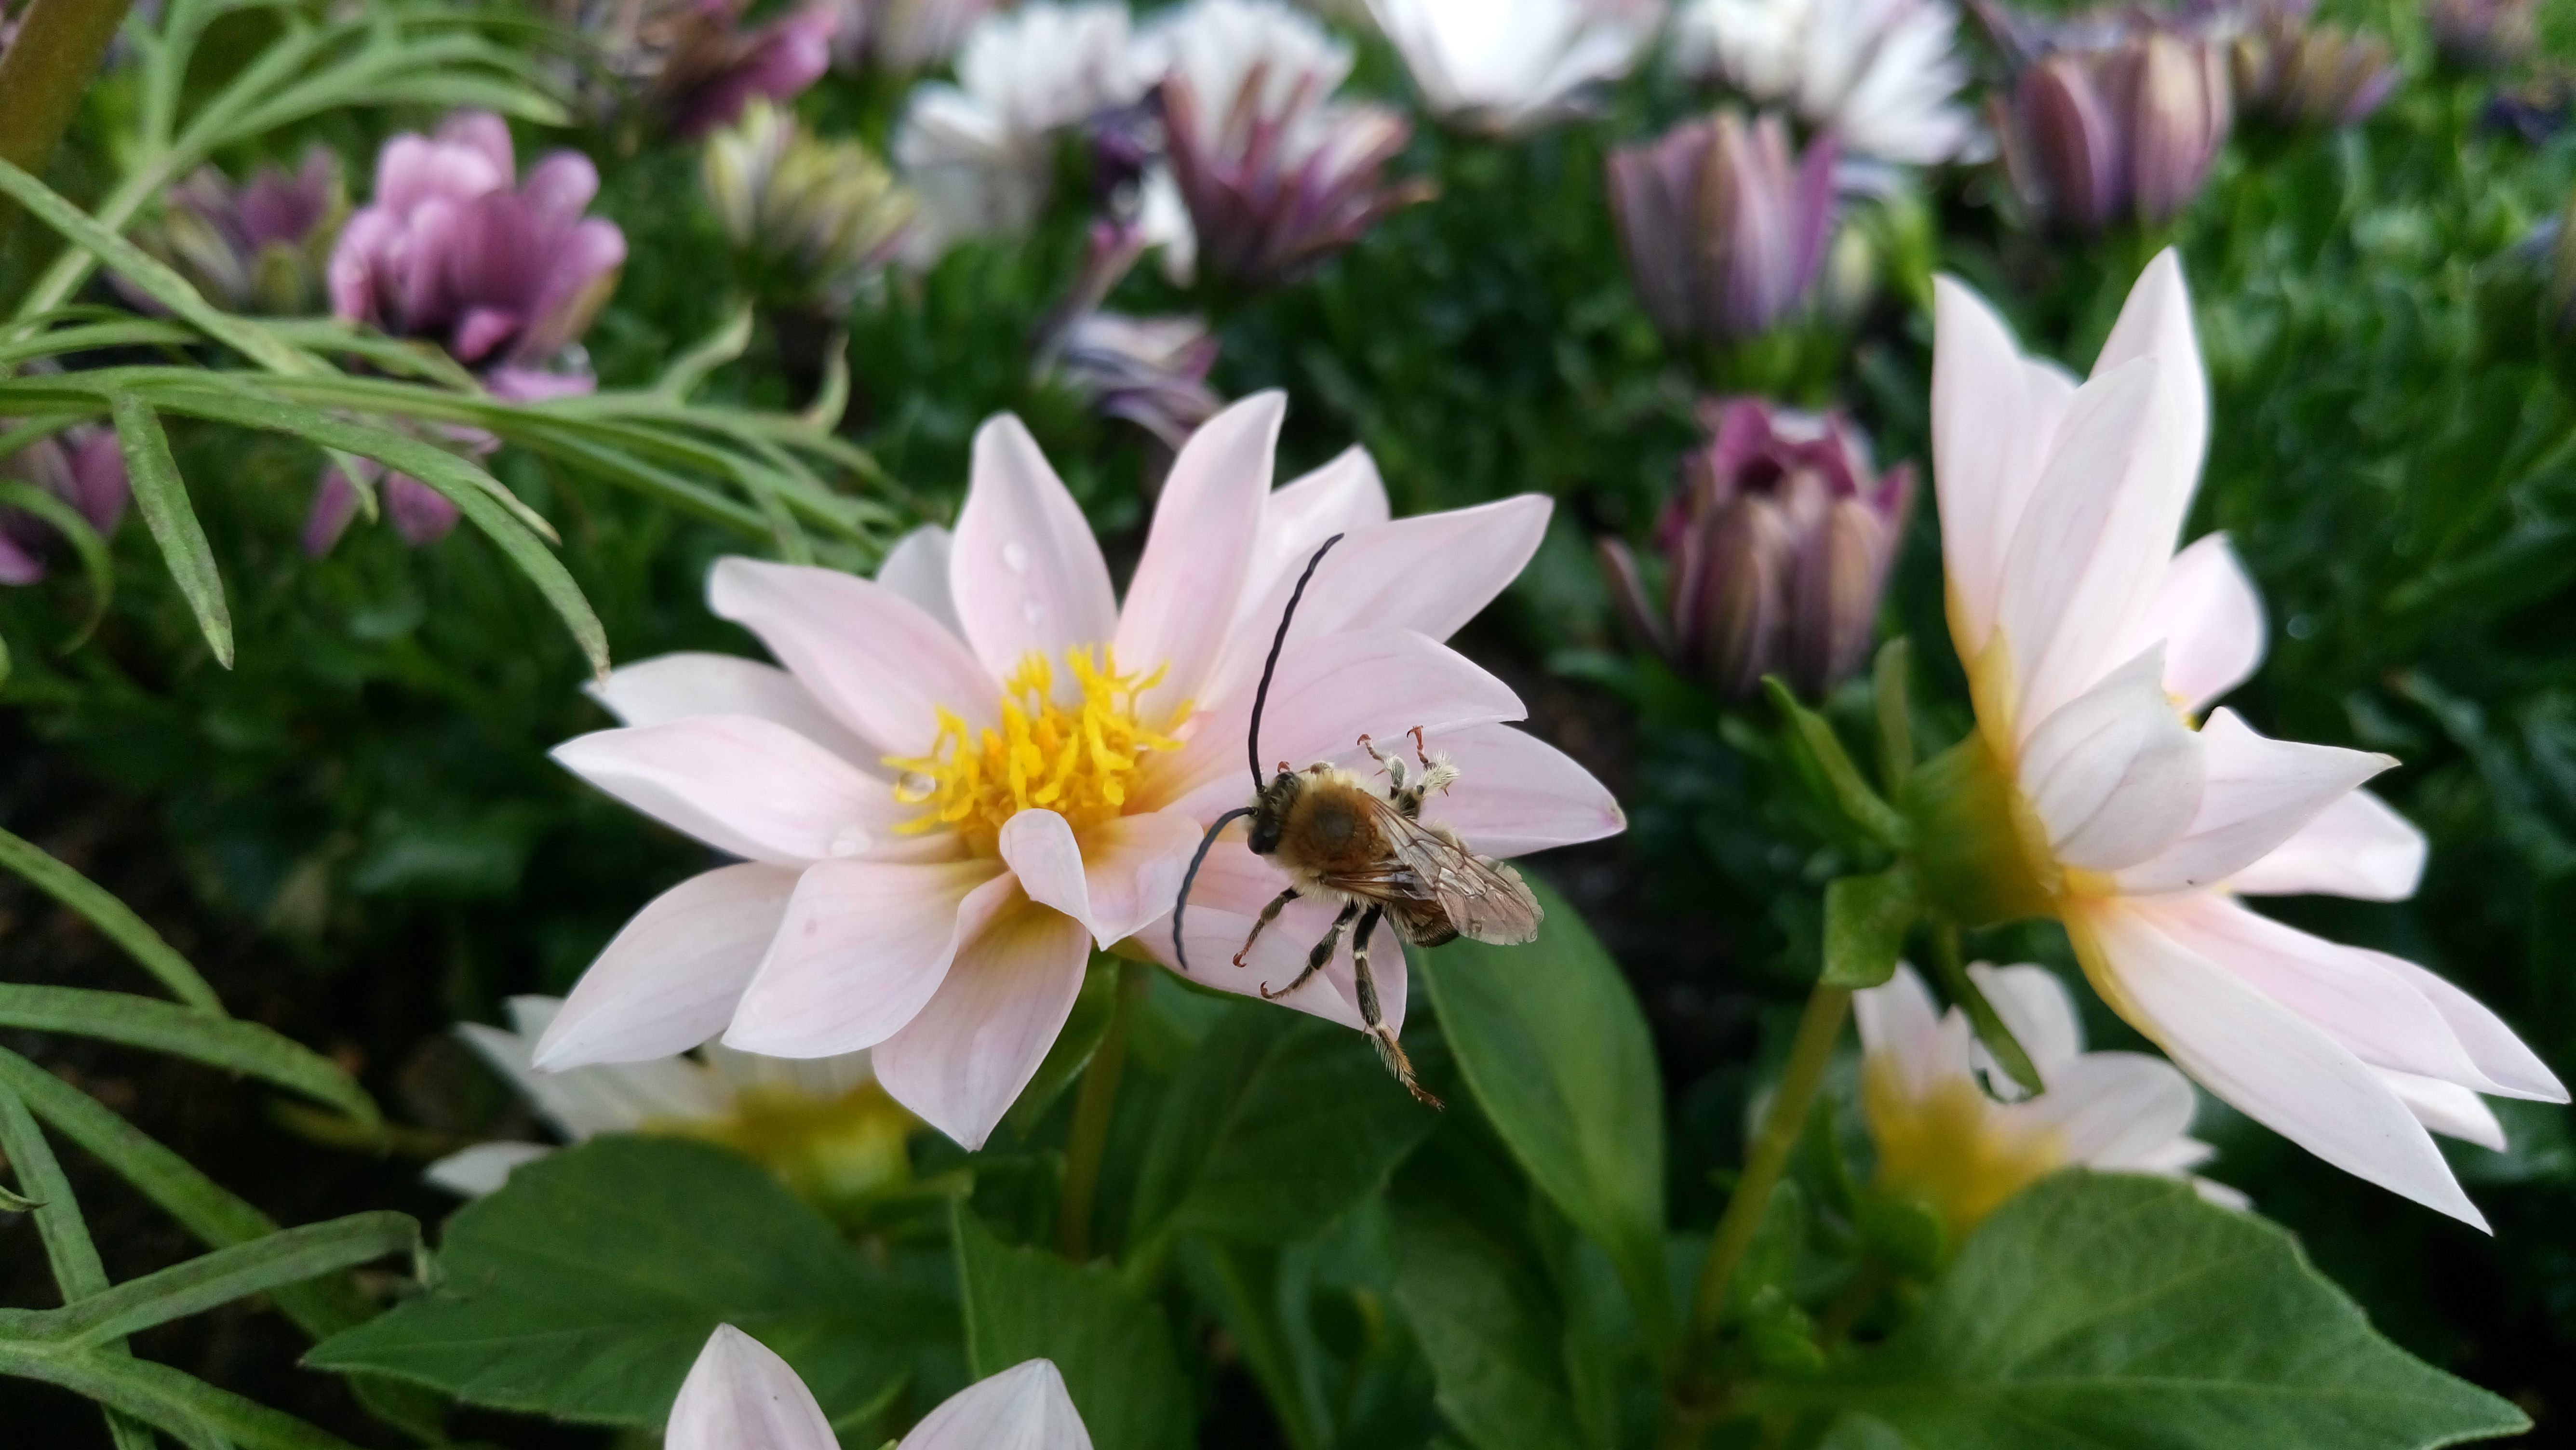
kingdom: Animalia
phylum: Arthropoda
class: Insecta
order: Hymenoptera
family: Apidae
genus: Eucera
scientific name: Eucera longicornis
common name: Long-horned bee
